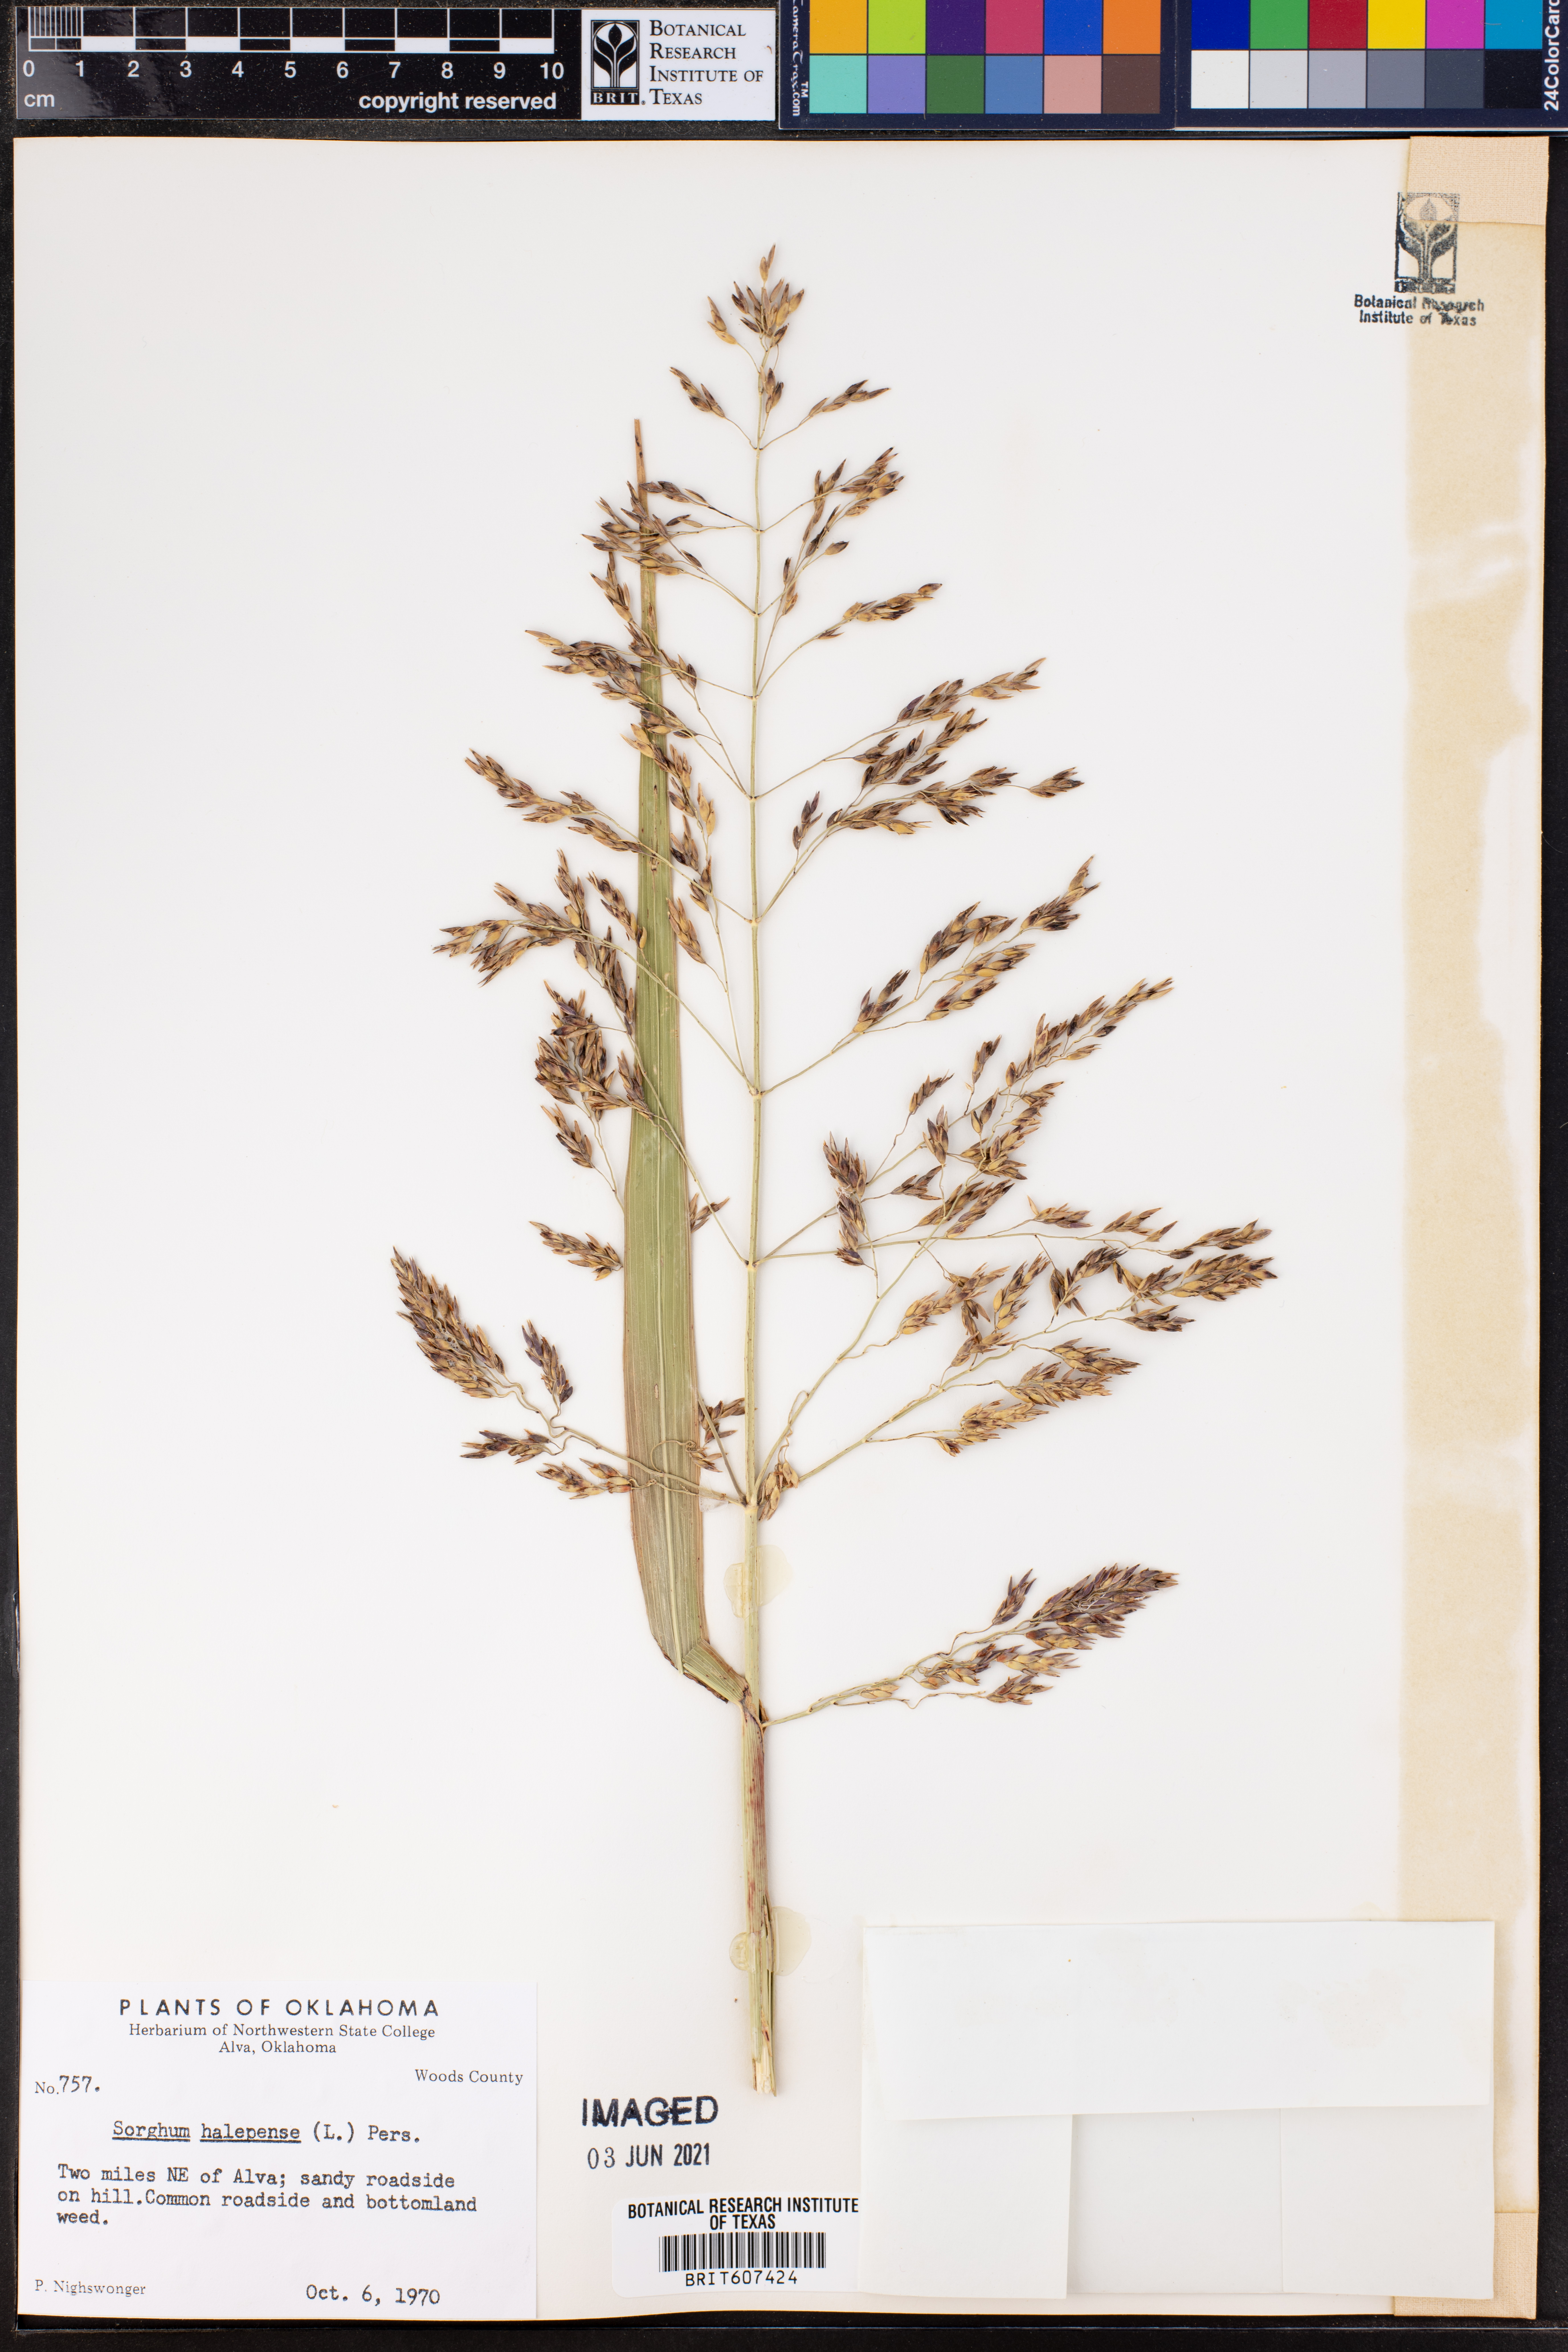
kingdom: Plantae
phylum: Tracheophyta
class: Liliopsida
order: Poales
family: Poaceae
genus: Sorghum
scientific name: Sorghum halepense
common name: Johnson-grass
